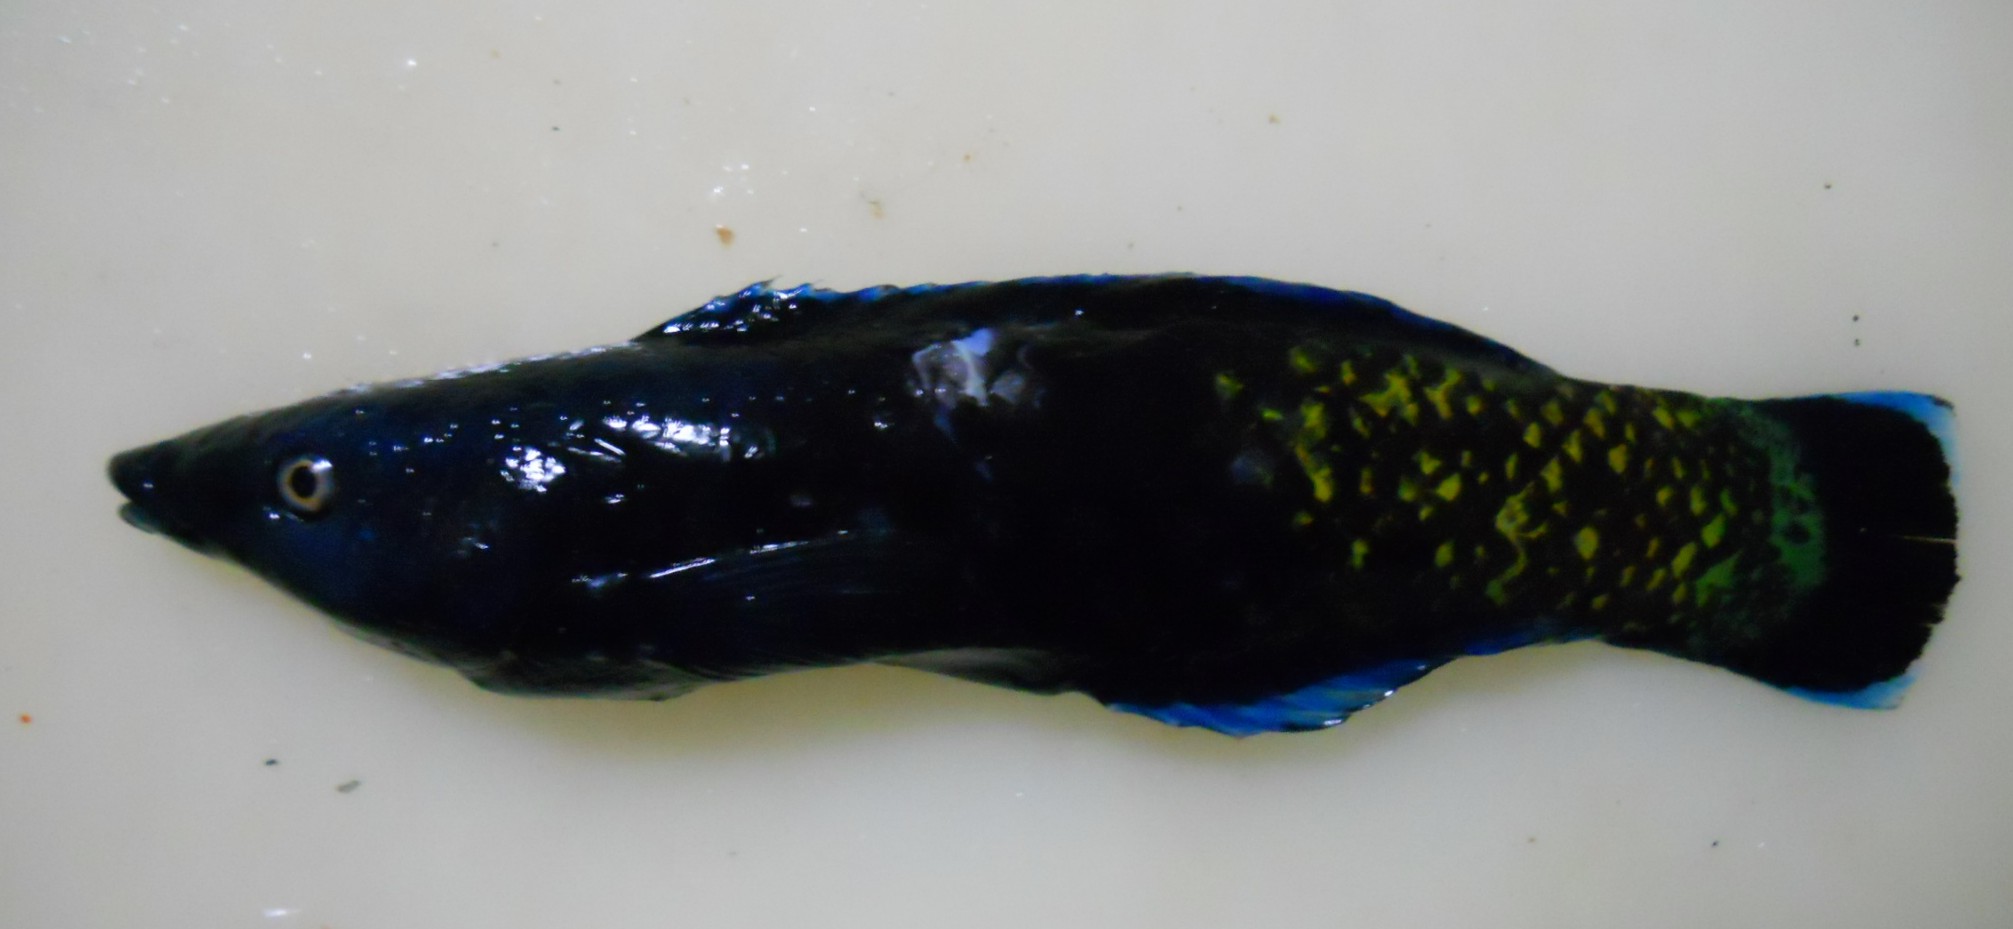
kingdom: Animalia
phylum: Chordata
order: Perciformes
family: Labridae
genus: Labroides
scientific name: Labroides bicolor
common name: Bicolor cleaner wrasse
